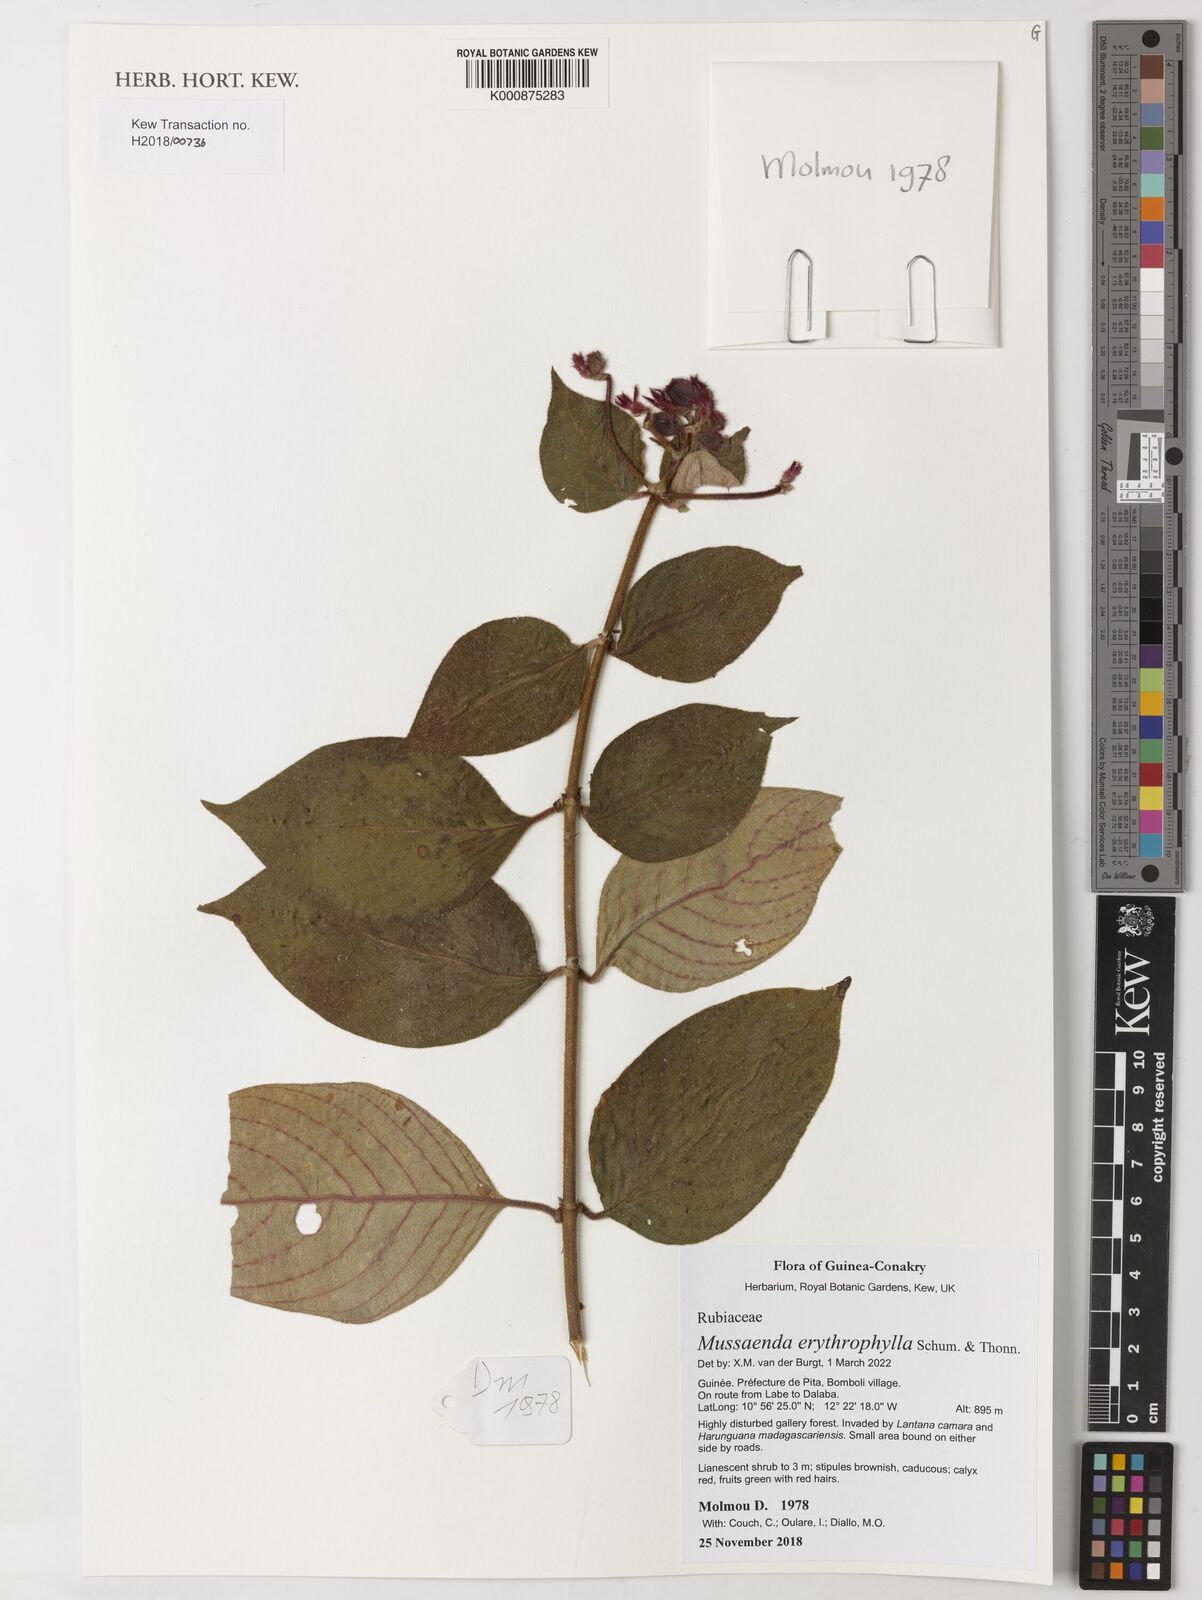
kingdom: Plantae
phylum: Tracheophyta
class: Magnoliopsida
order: Gentianales
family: Rubiaceae
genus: Mussaenda
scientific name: Mussaenda erythrophylla
